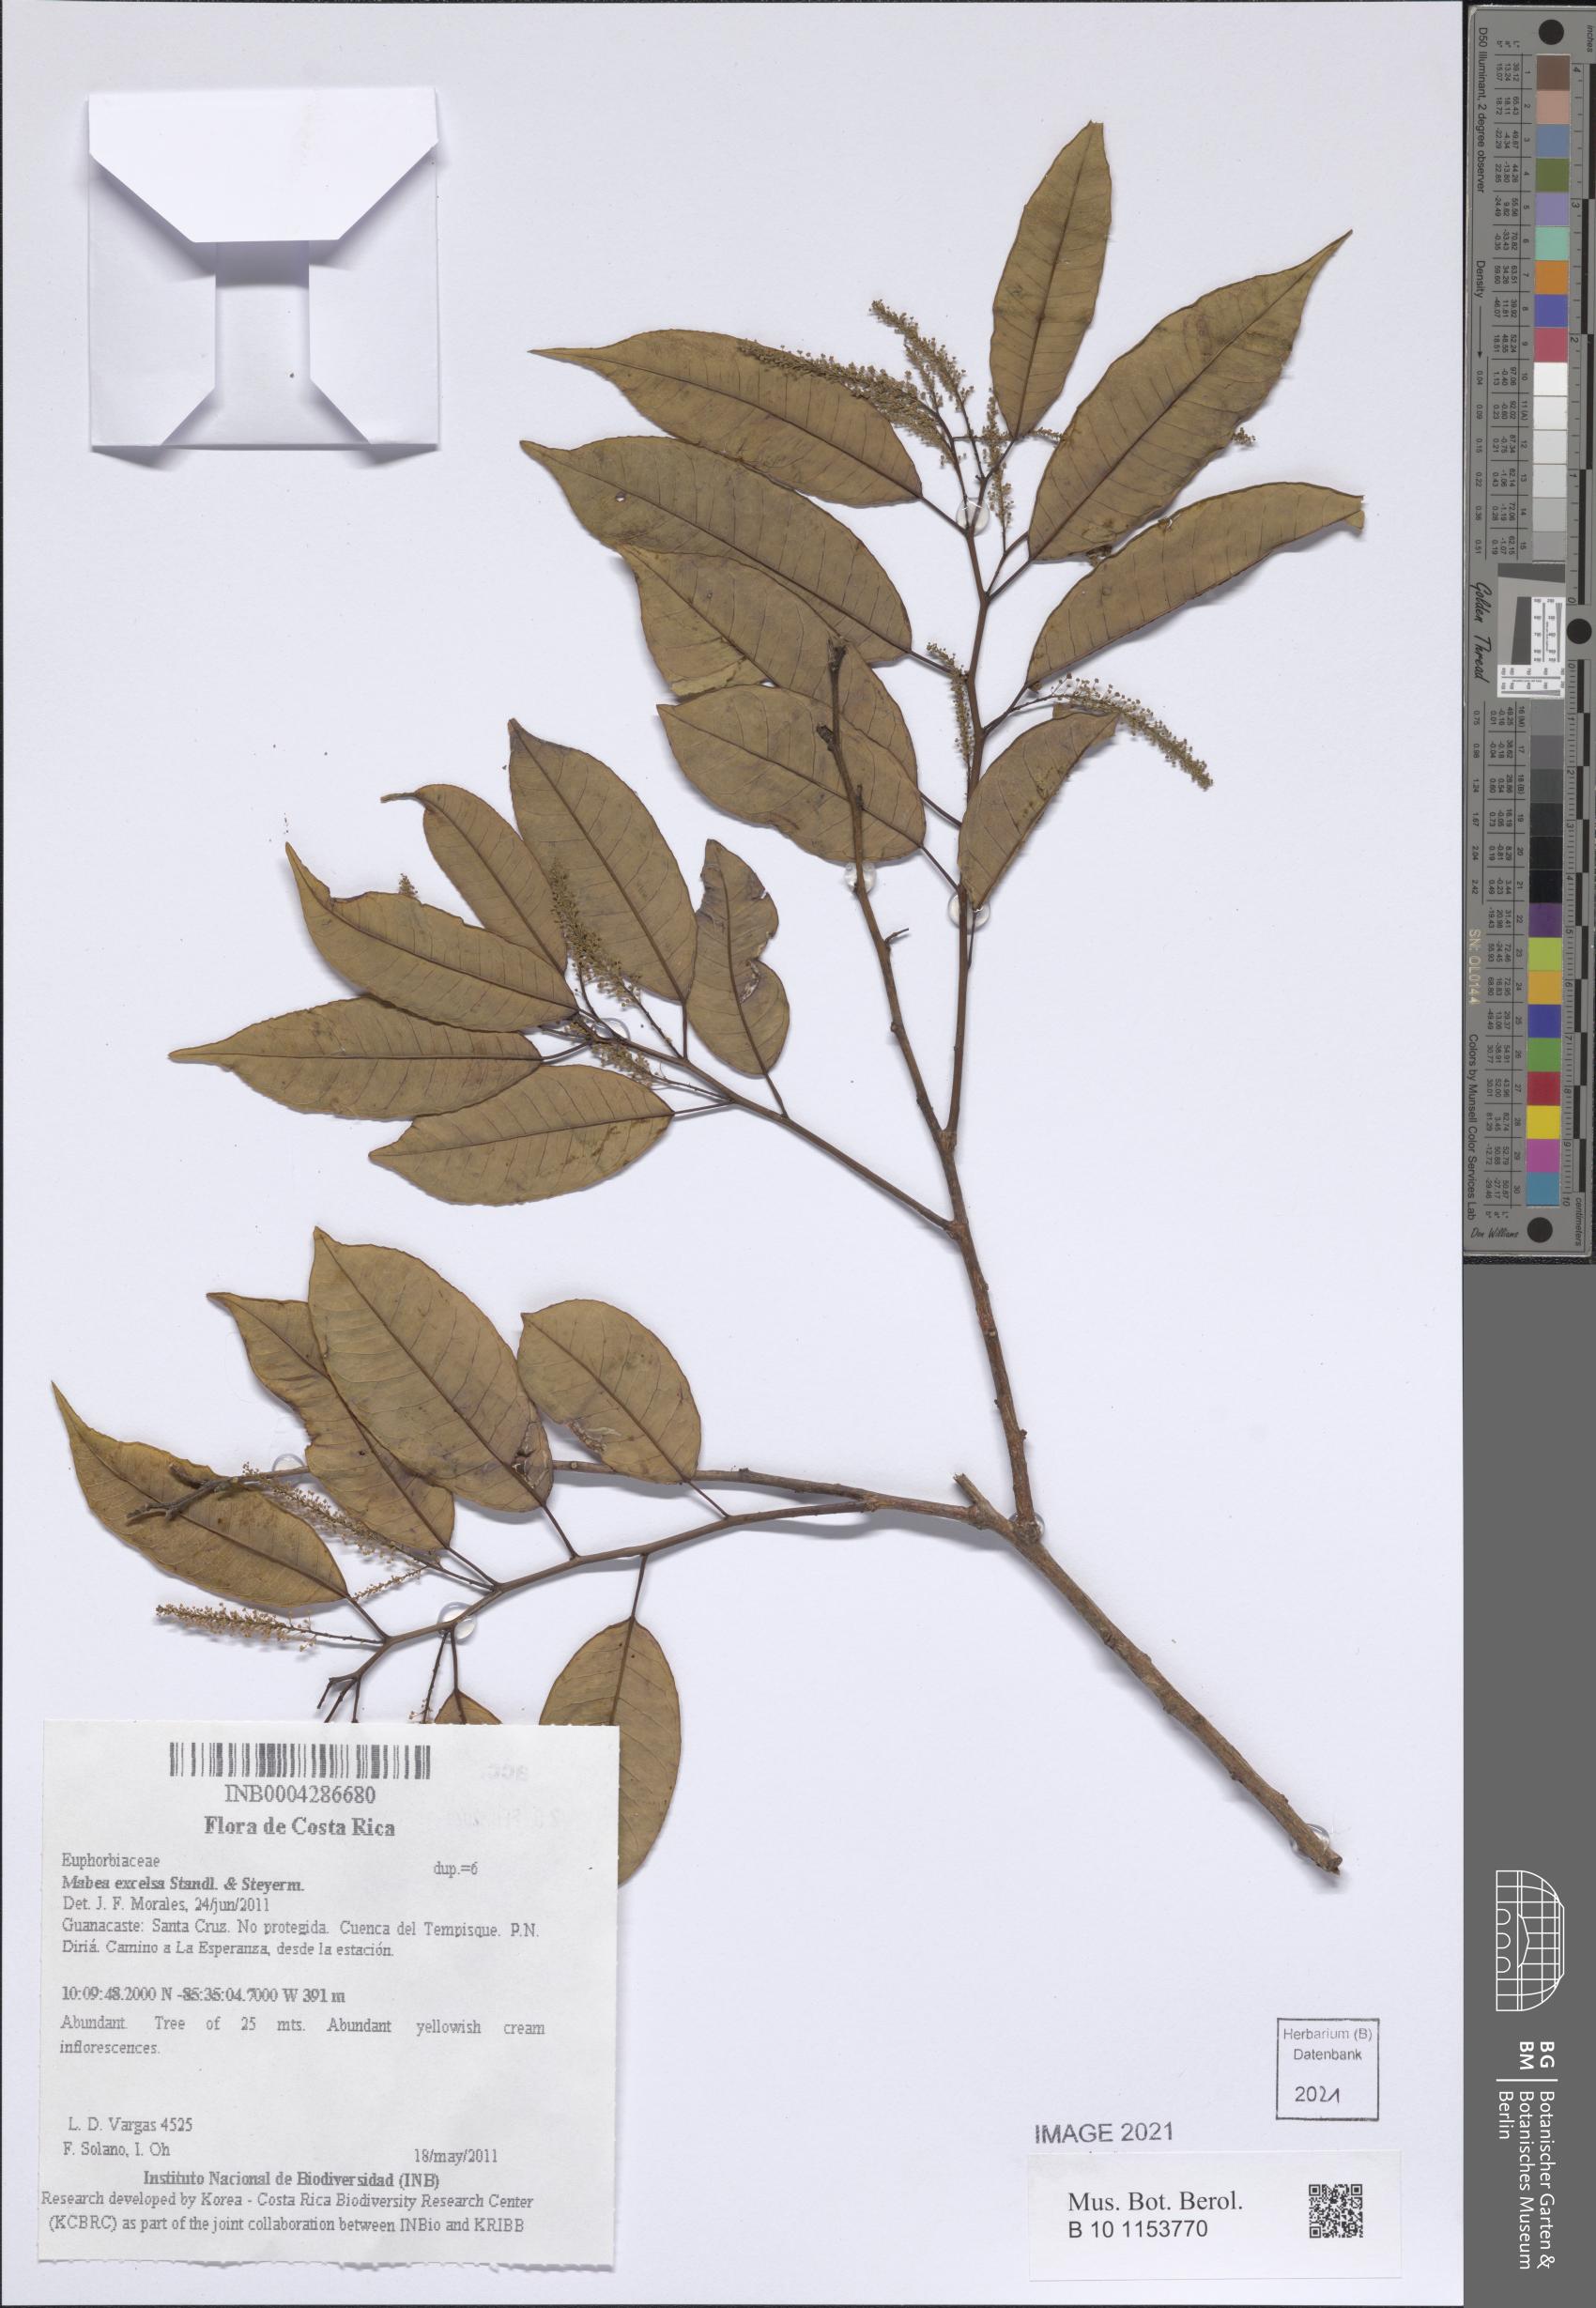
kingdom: Plantae
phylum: Tracheophyta
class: Magnoliopsida
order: Malpighiales
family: Euphorbiaceae
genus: Mabea
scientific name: Mabea excelsa
